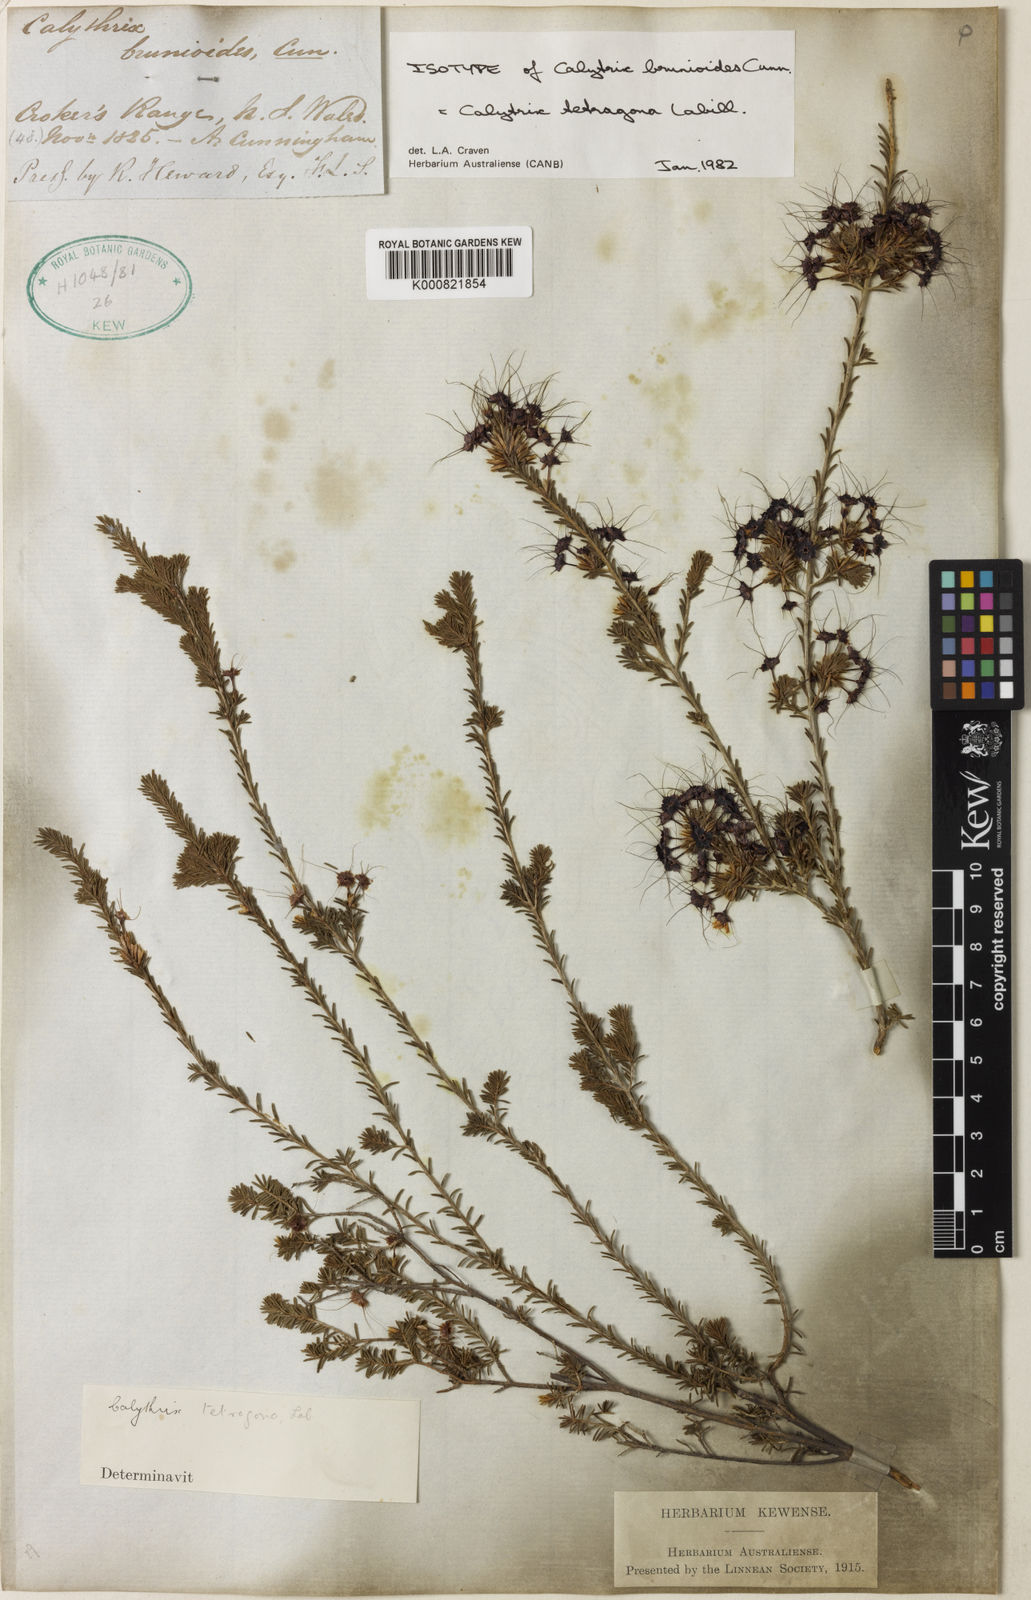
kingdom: Plantae
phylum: Tracheophyta
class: Magnoliopsida
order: Myrtales
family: Myrtaceae
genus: Calytrix
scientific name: Calytrix tetragona
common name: Common fringe myrtle
